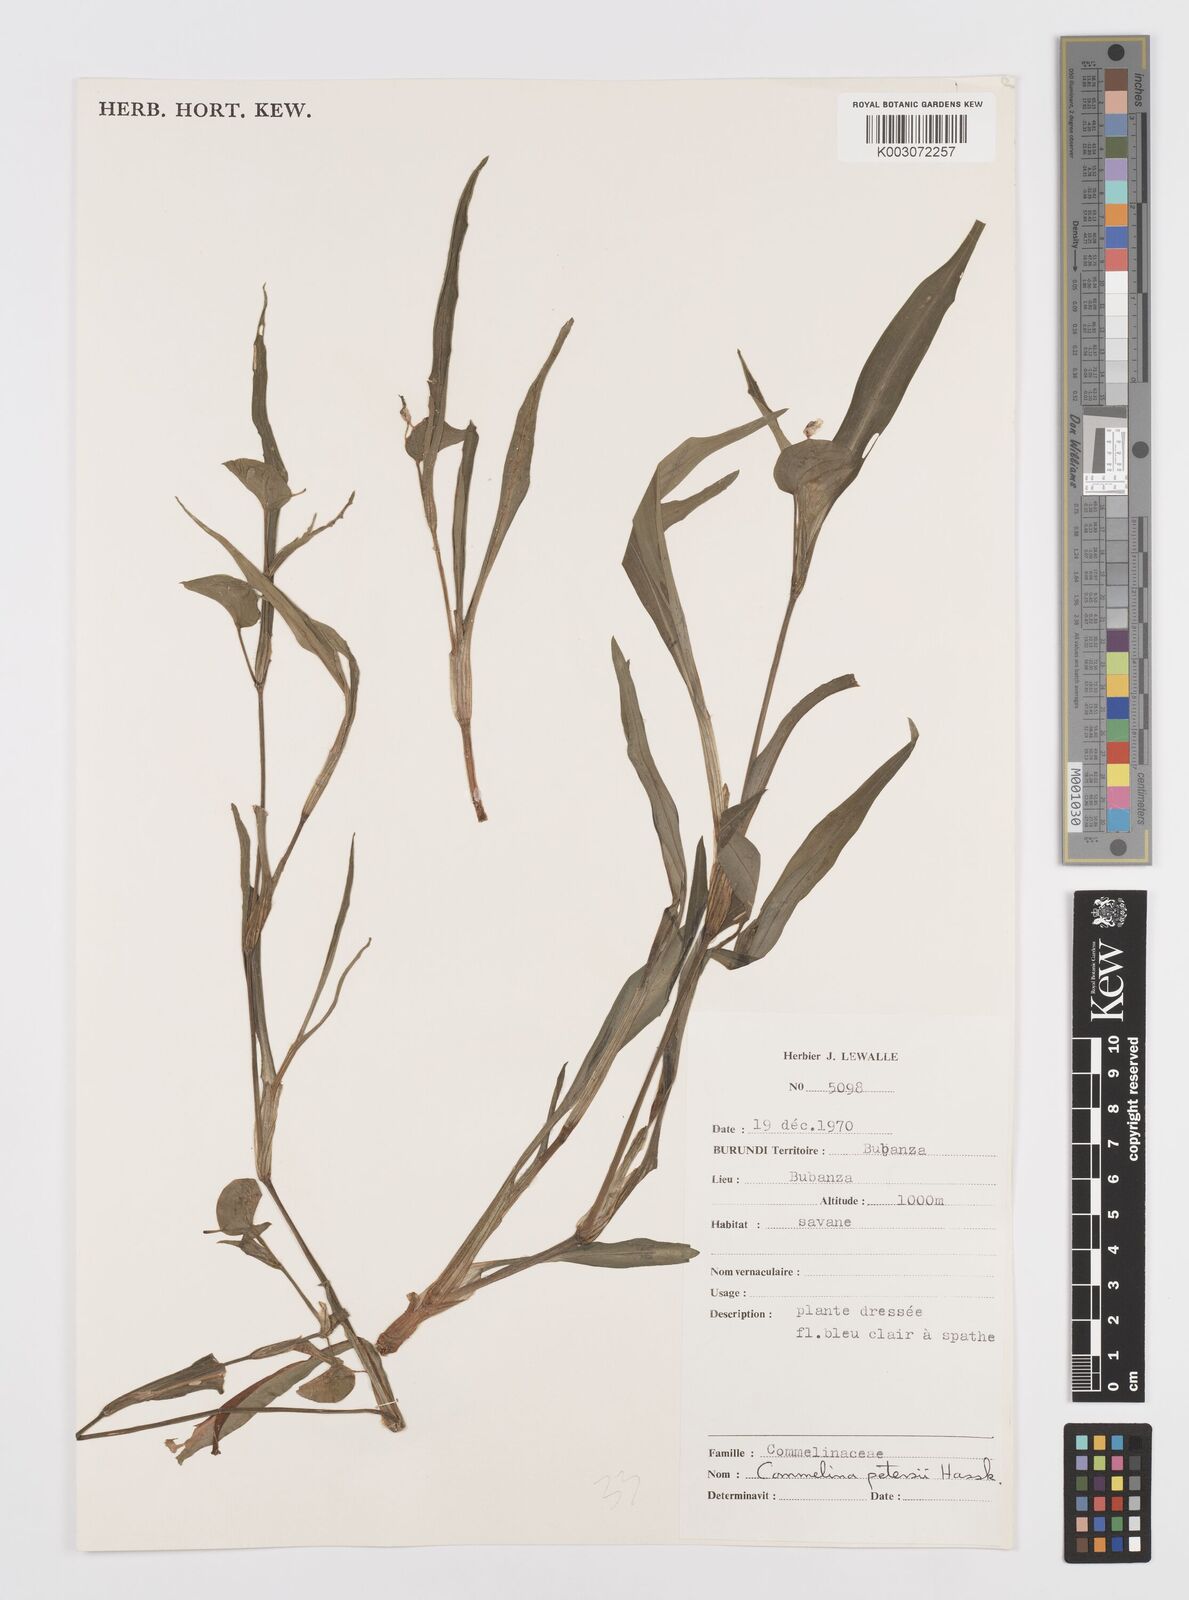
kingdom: Plantae
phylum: Tracheophyta
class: Liliopsida
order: Commelinales
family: Commelinaceae
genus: Commelina
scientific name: Commelina petersii
